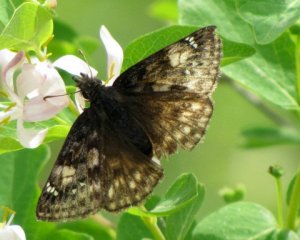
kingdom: Animalia
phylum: Arthropoda
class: Insecta
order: Lepidoptera
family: Hesperiidae
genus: Gesta
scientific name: Gesta
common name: Juvenal's Duskywing
